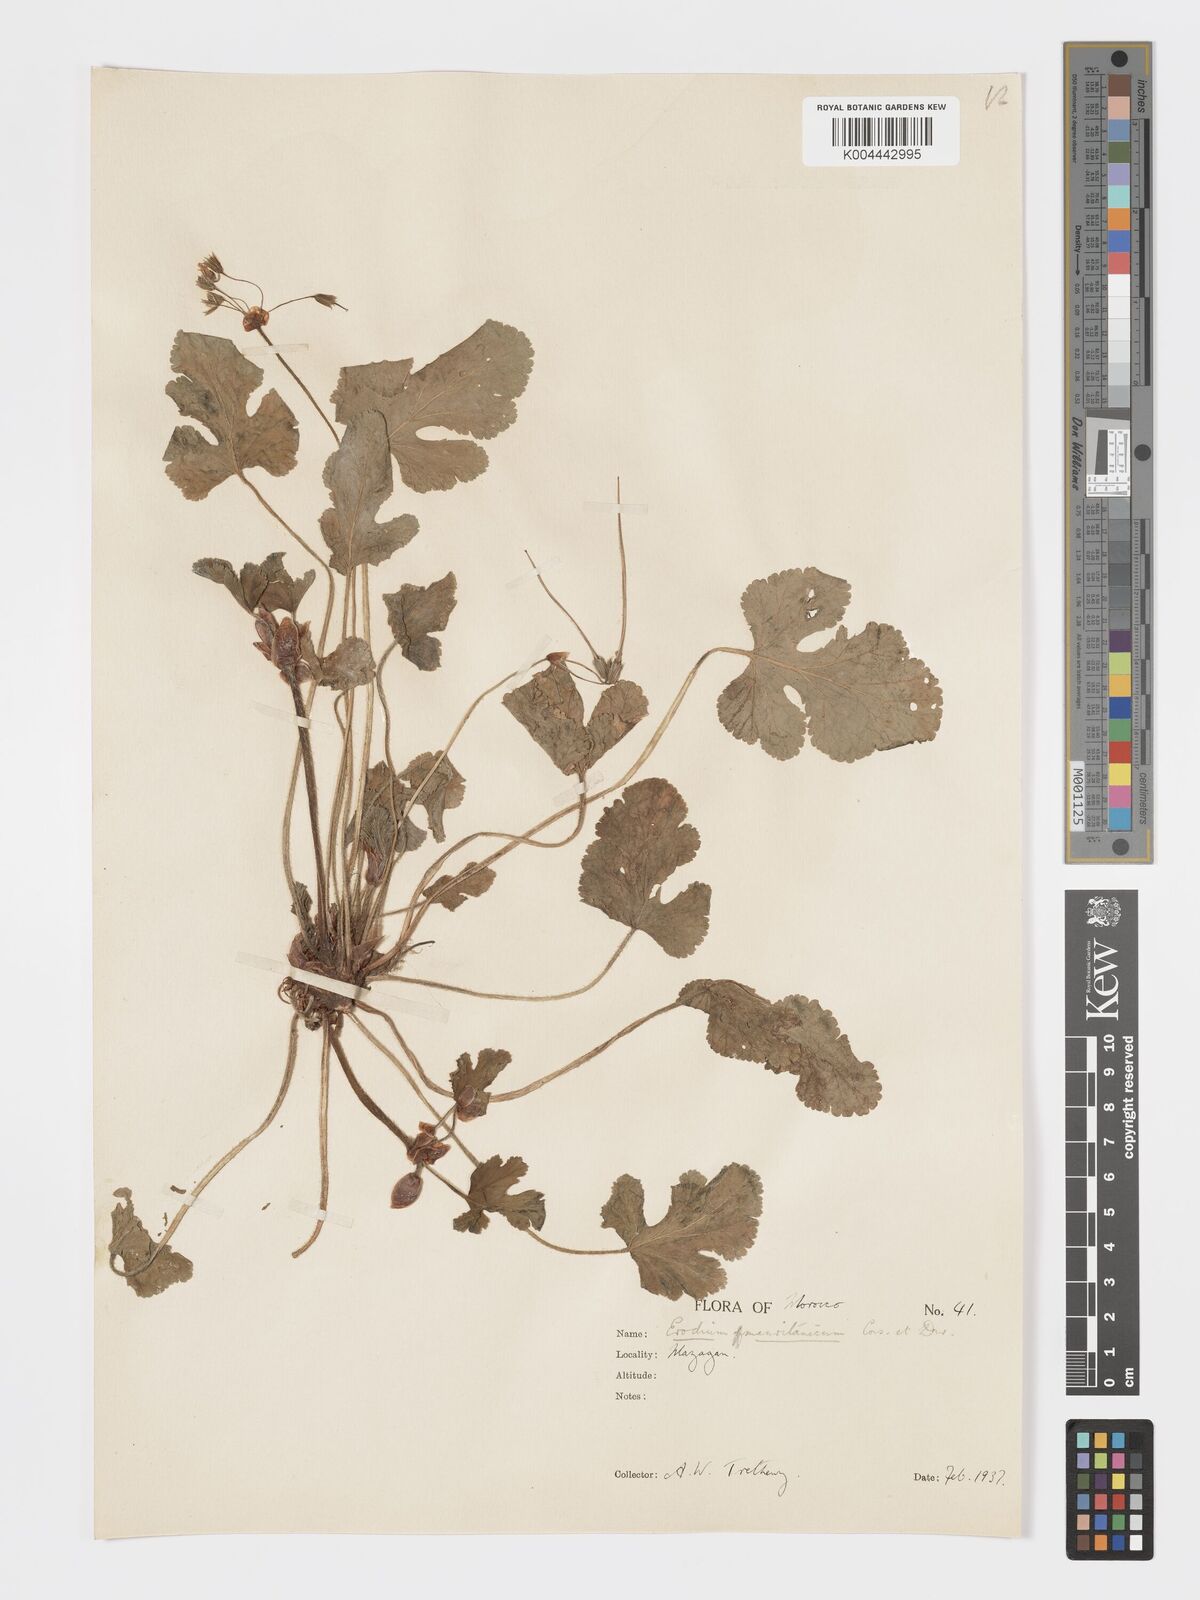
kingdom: Plantae
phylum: Tracheophyta
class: Magnoliopsida
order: Geraniales
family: Geraniaceae
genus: Erodium
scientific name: Erodium
